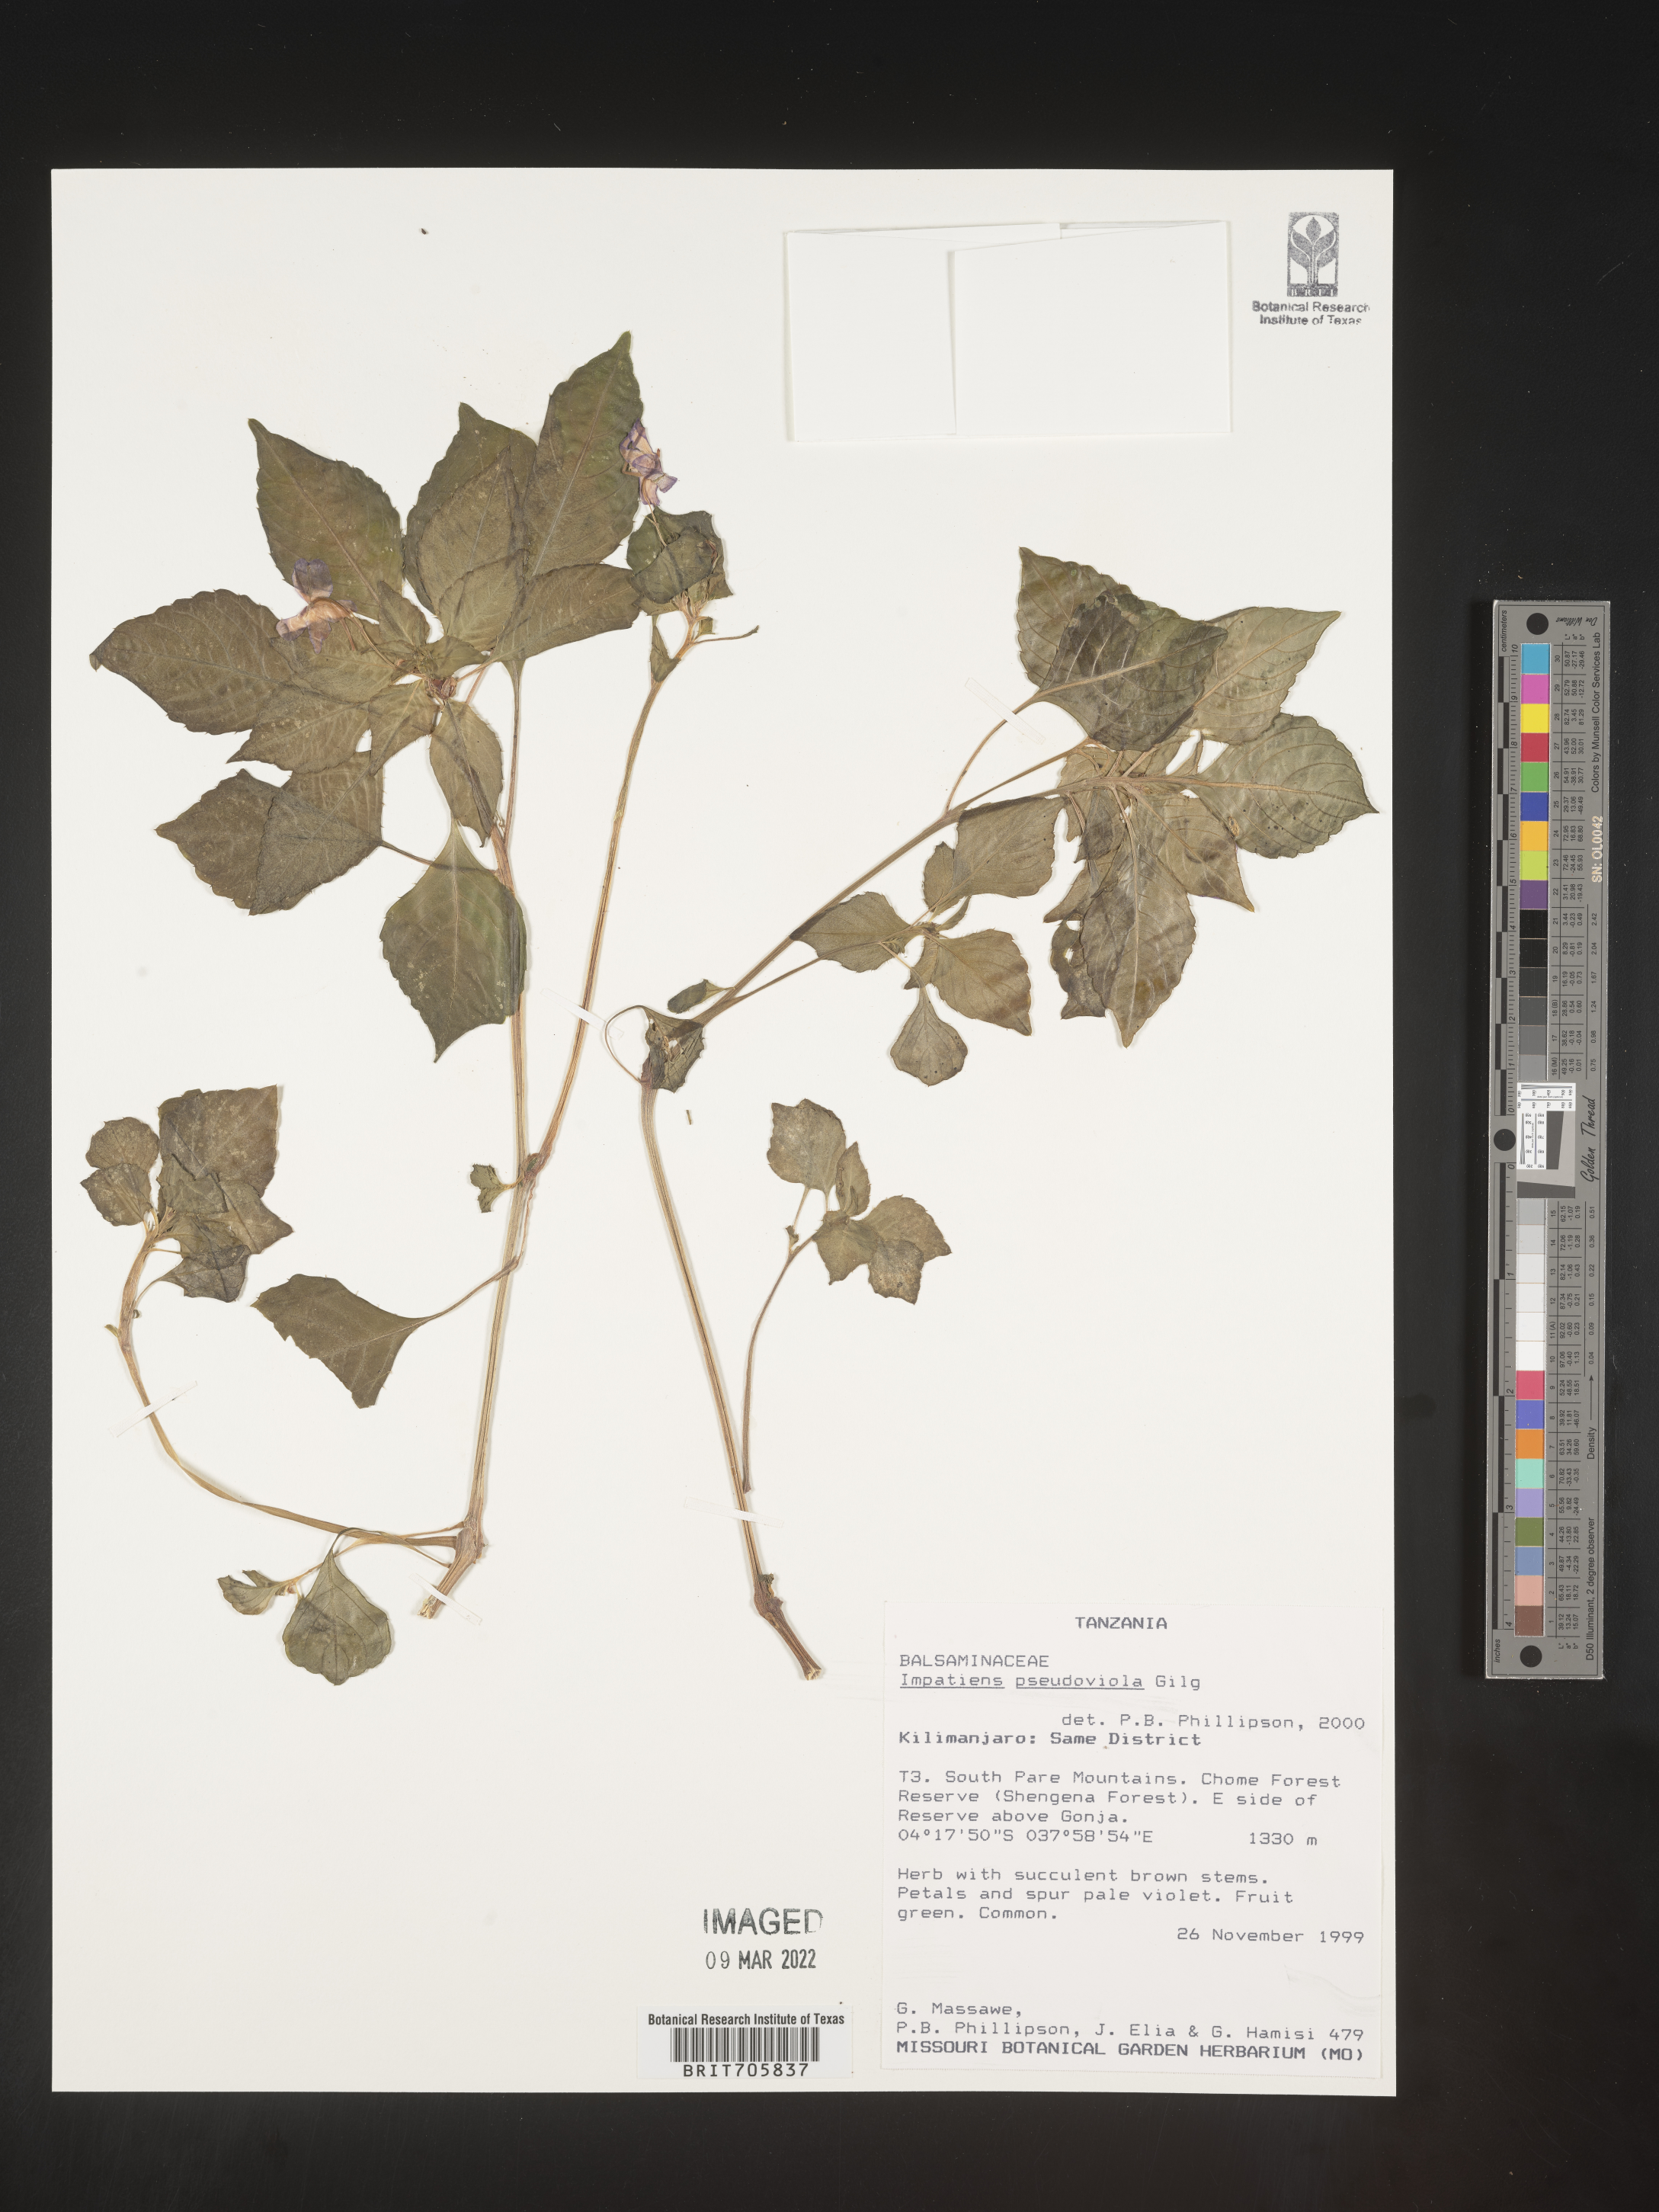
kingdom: Plantae
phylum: Tracheophyta
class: Magnoliopsida
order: Ericales
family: Balsaminaceae
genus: Impatiens
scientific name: Impatiens
